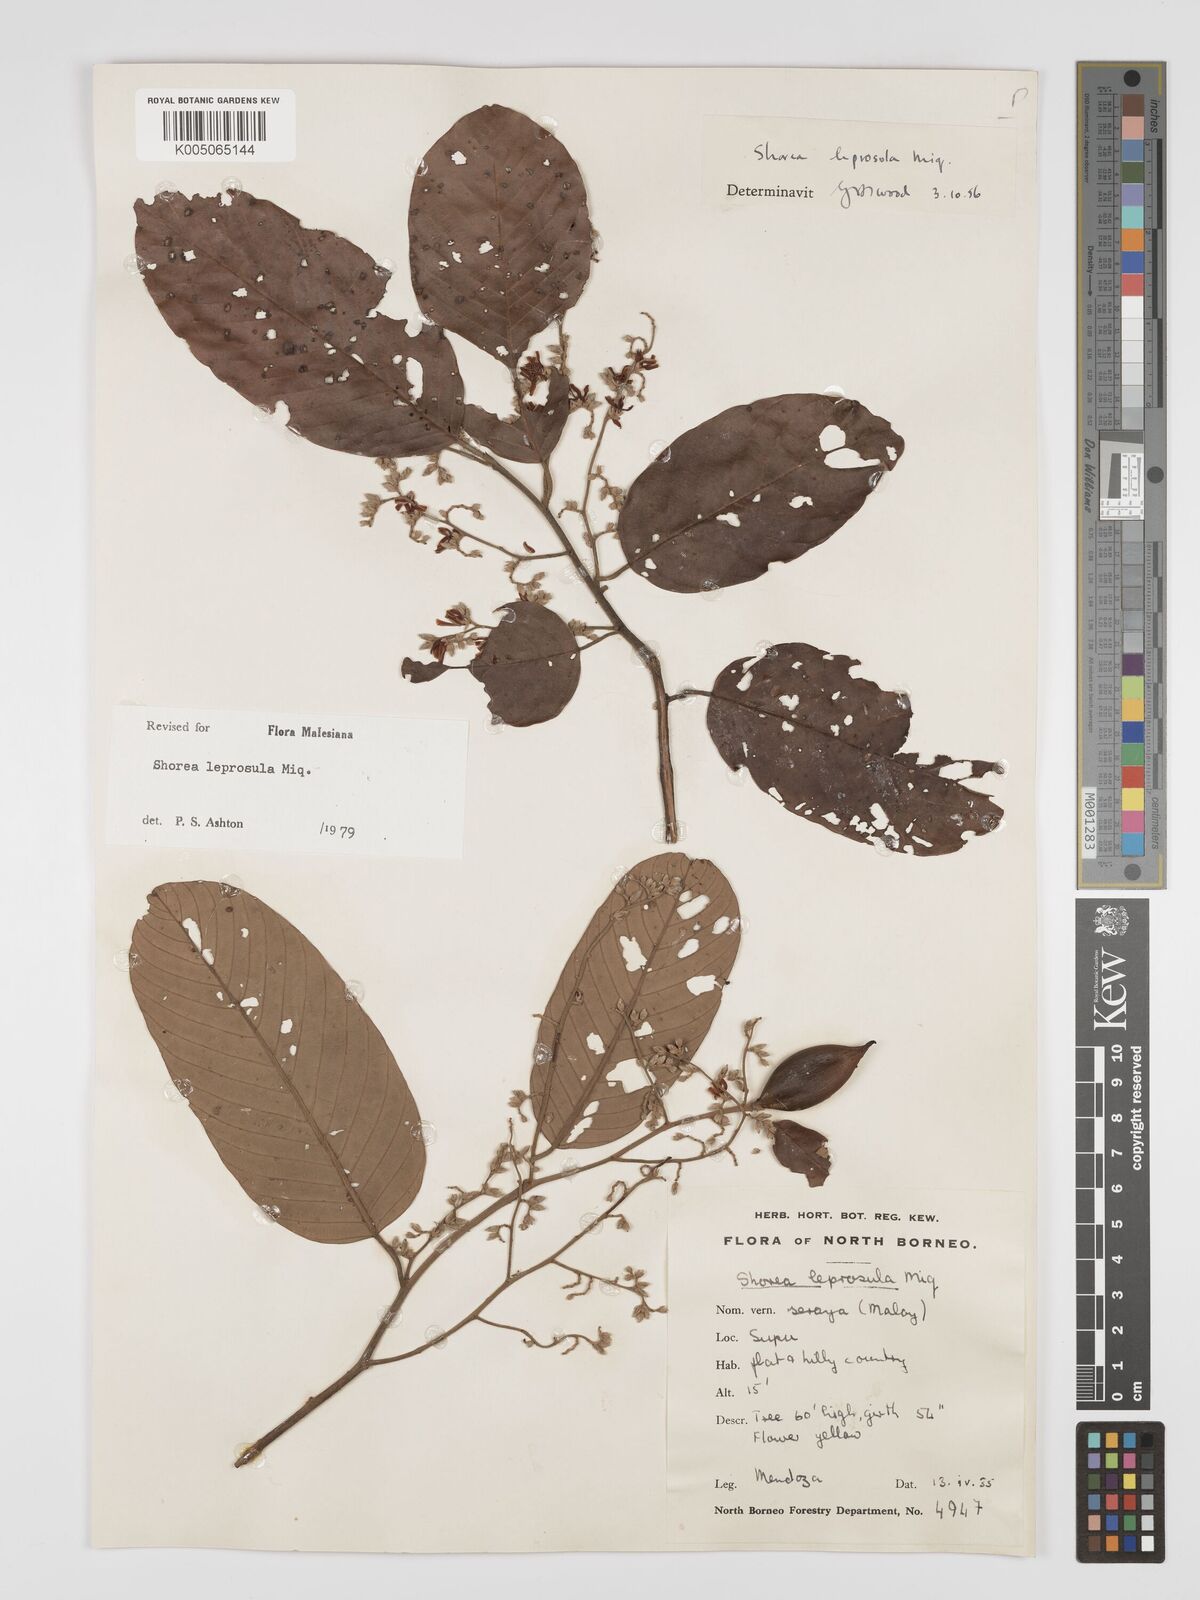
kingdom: Plantae
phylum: Tracheophyta
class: Magnoliopsida
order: Malvales
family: Dipterocarpaceae
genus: Shorea
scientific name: Shorea leprosula
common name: Light red meranti
